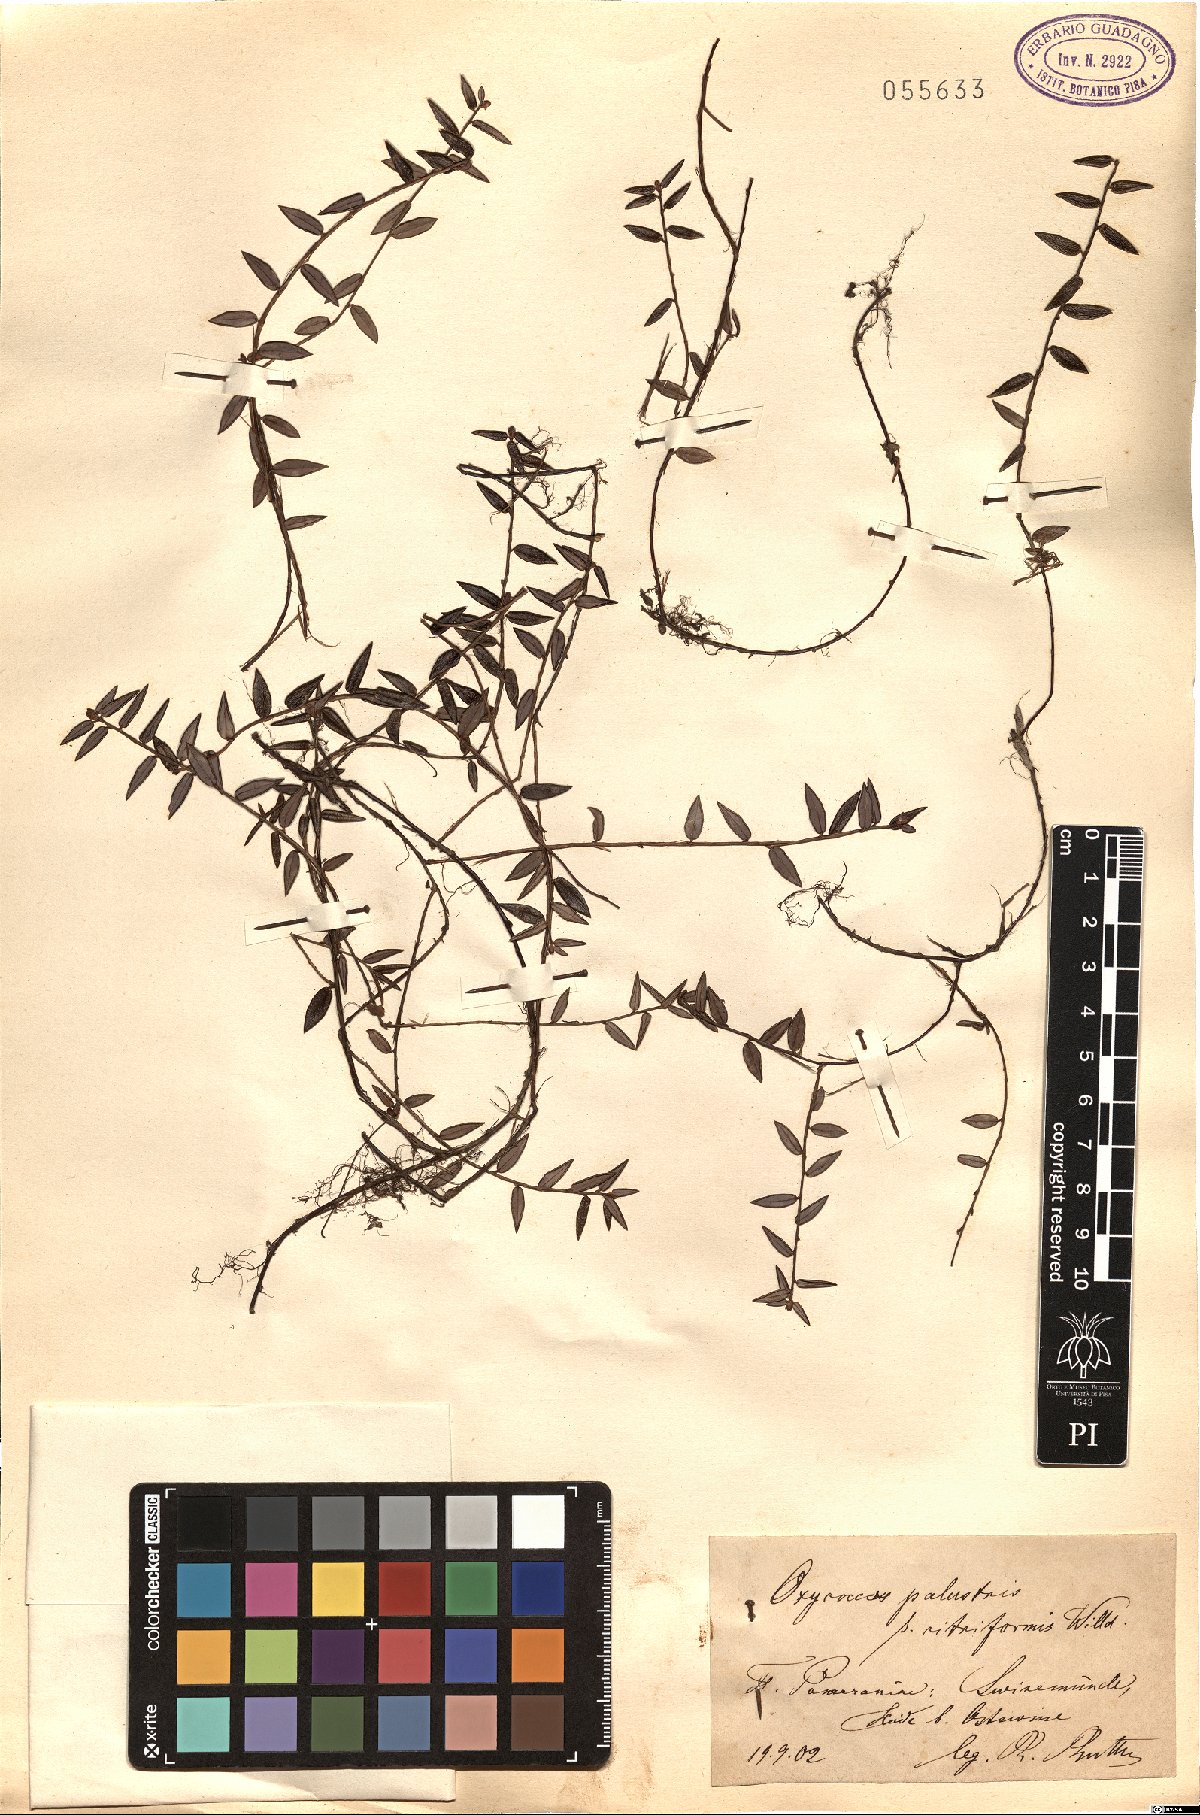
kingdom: Plantae
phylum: Tracheophyta
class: Magnoliopsida
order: Ericales
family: Ericaceae
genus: Vaccinium
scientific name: Vaccinium oxycoccos
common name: Cranberry
